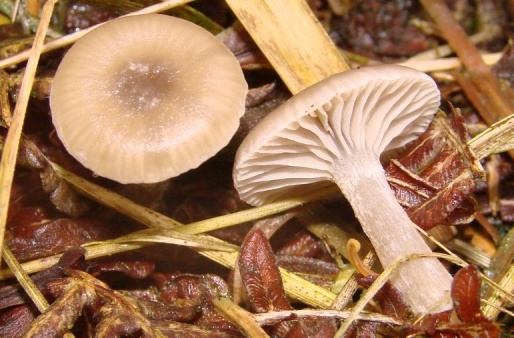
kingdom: Fungi
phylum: Basidiomycota
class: Agaricomycetes
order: Agaricales
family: Tricholomataceae
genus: Clitocybe
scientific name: Clitocybe vibecina
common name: randstribet tragthat
